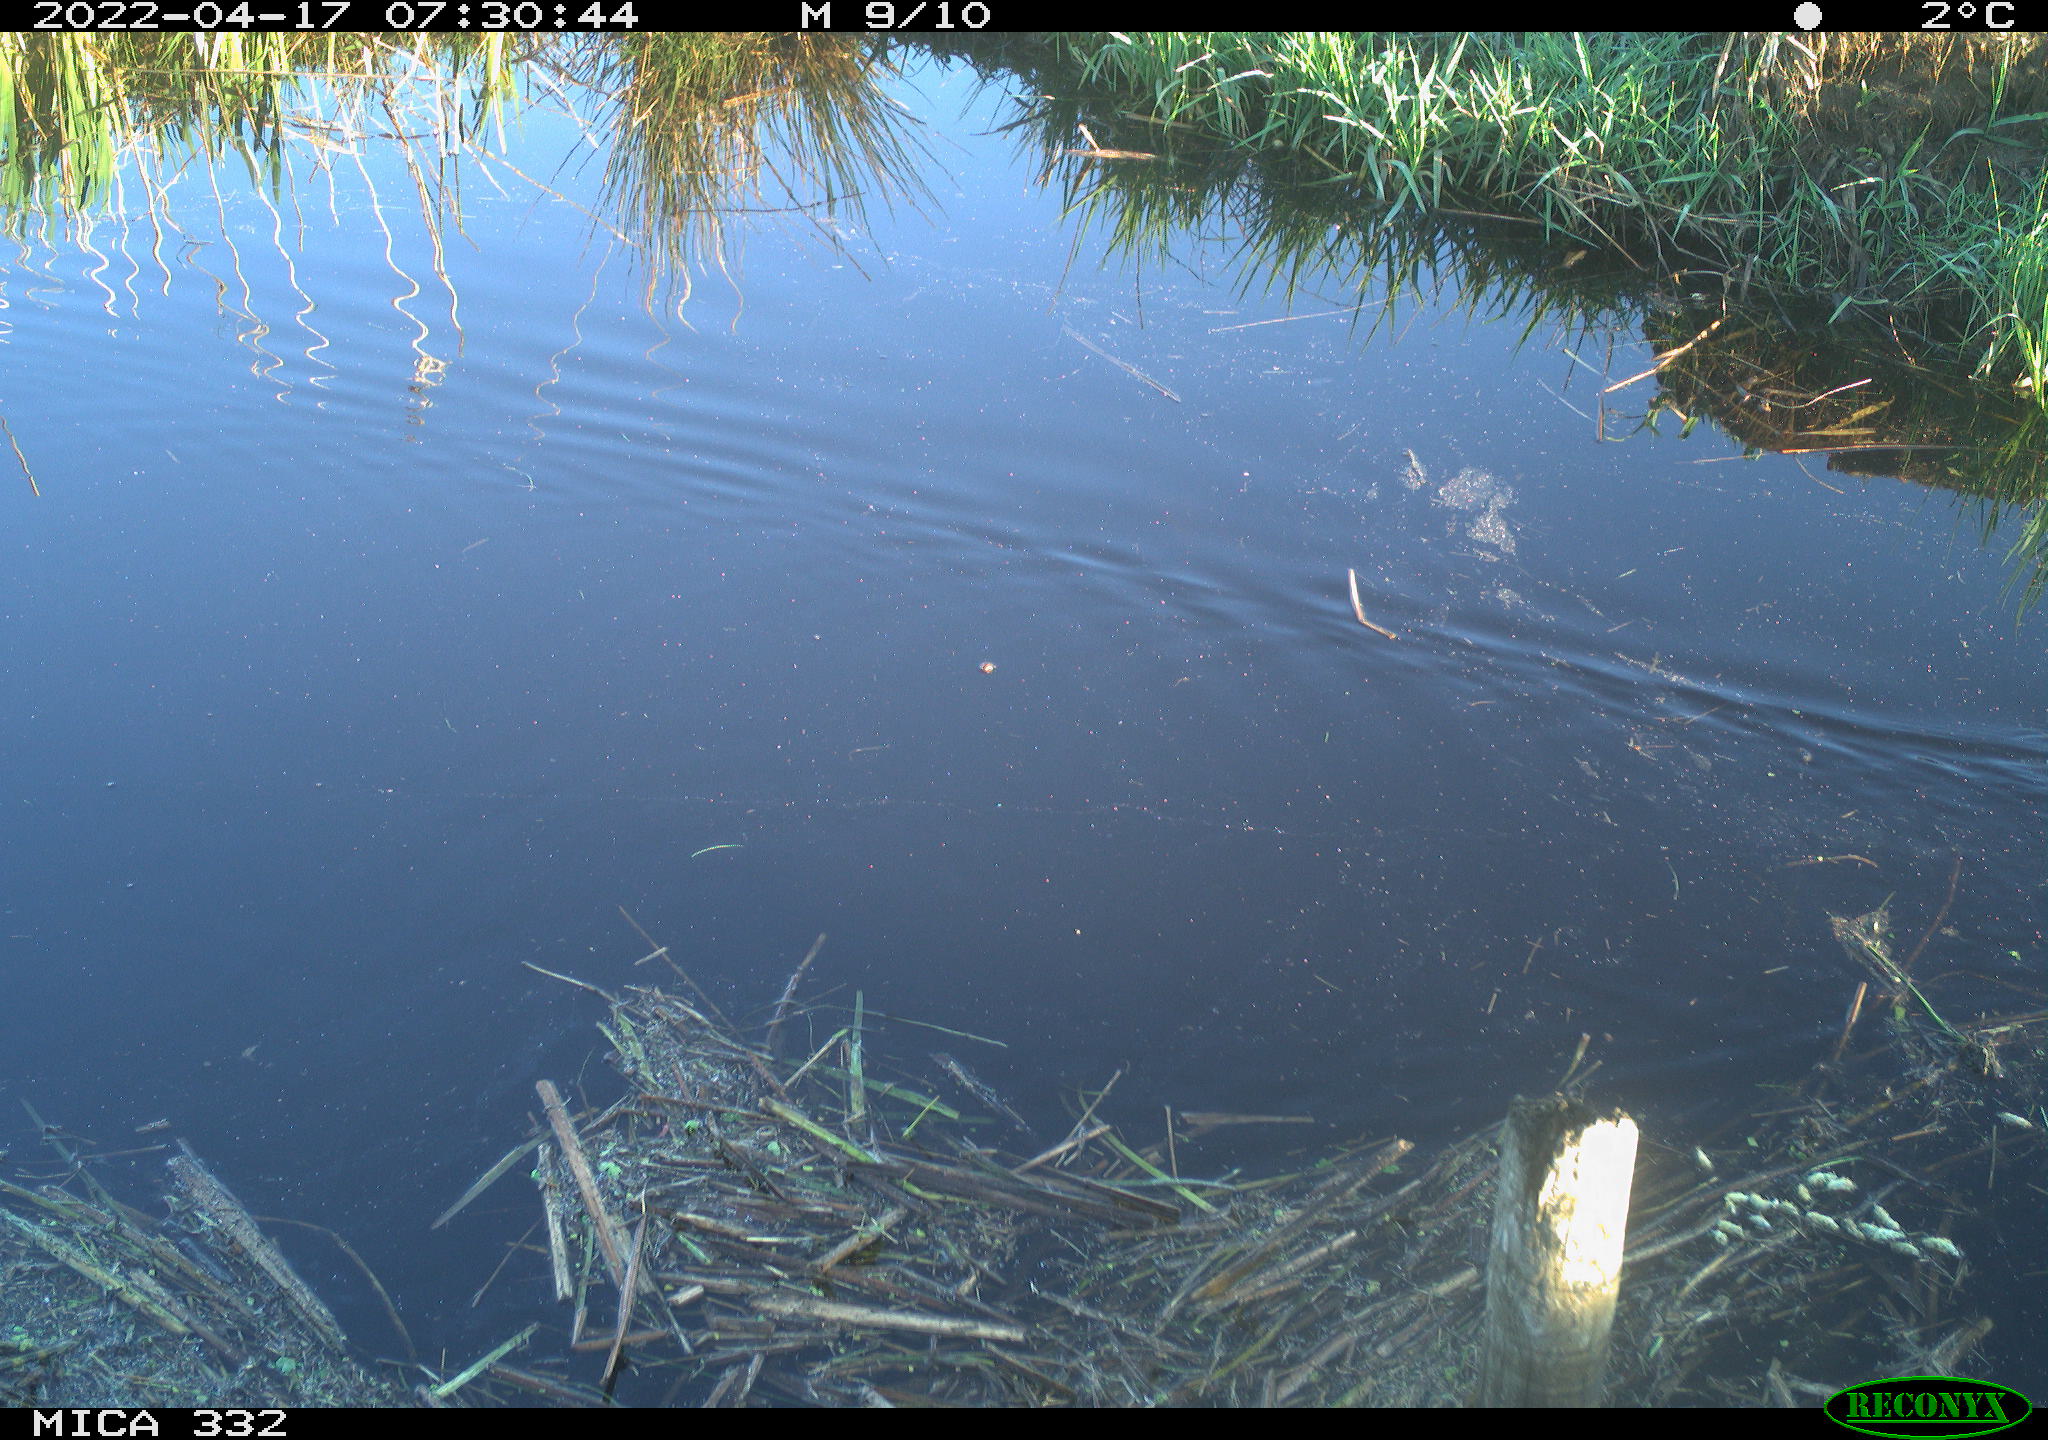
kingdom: Animalia
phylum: Chordata
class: Aves
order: Gruiformes
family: Rallidae
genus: Gallinula
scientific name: Gallinula chloropus
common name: Common moorhen
